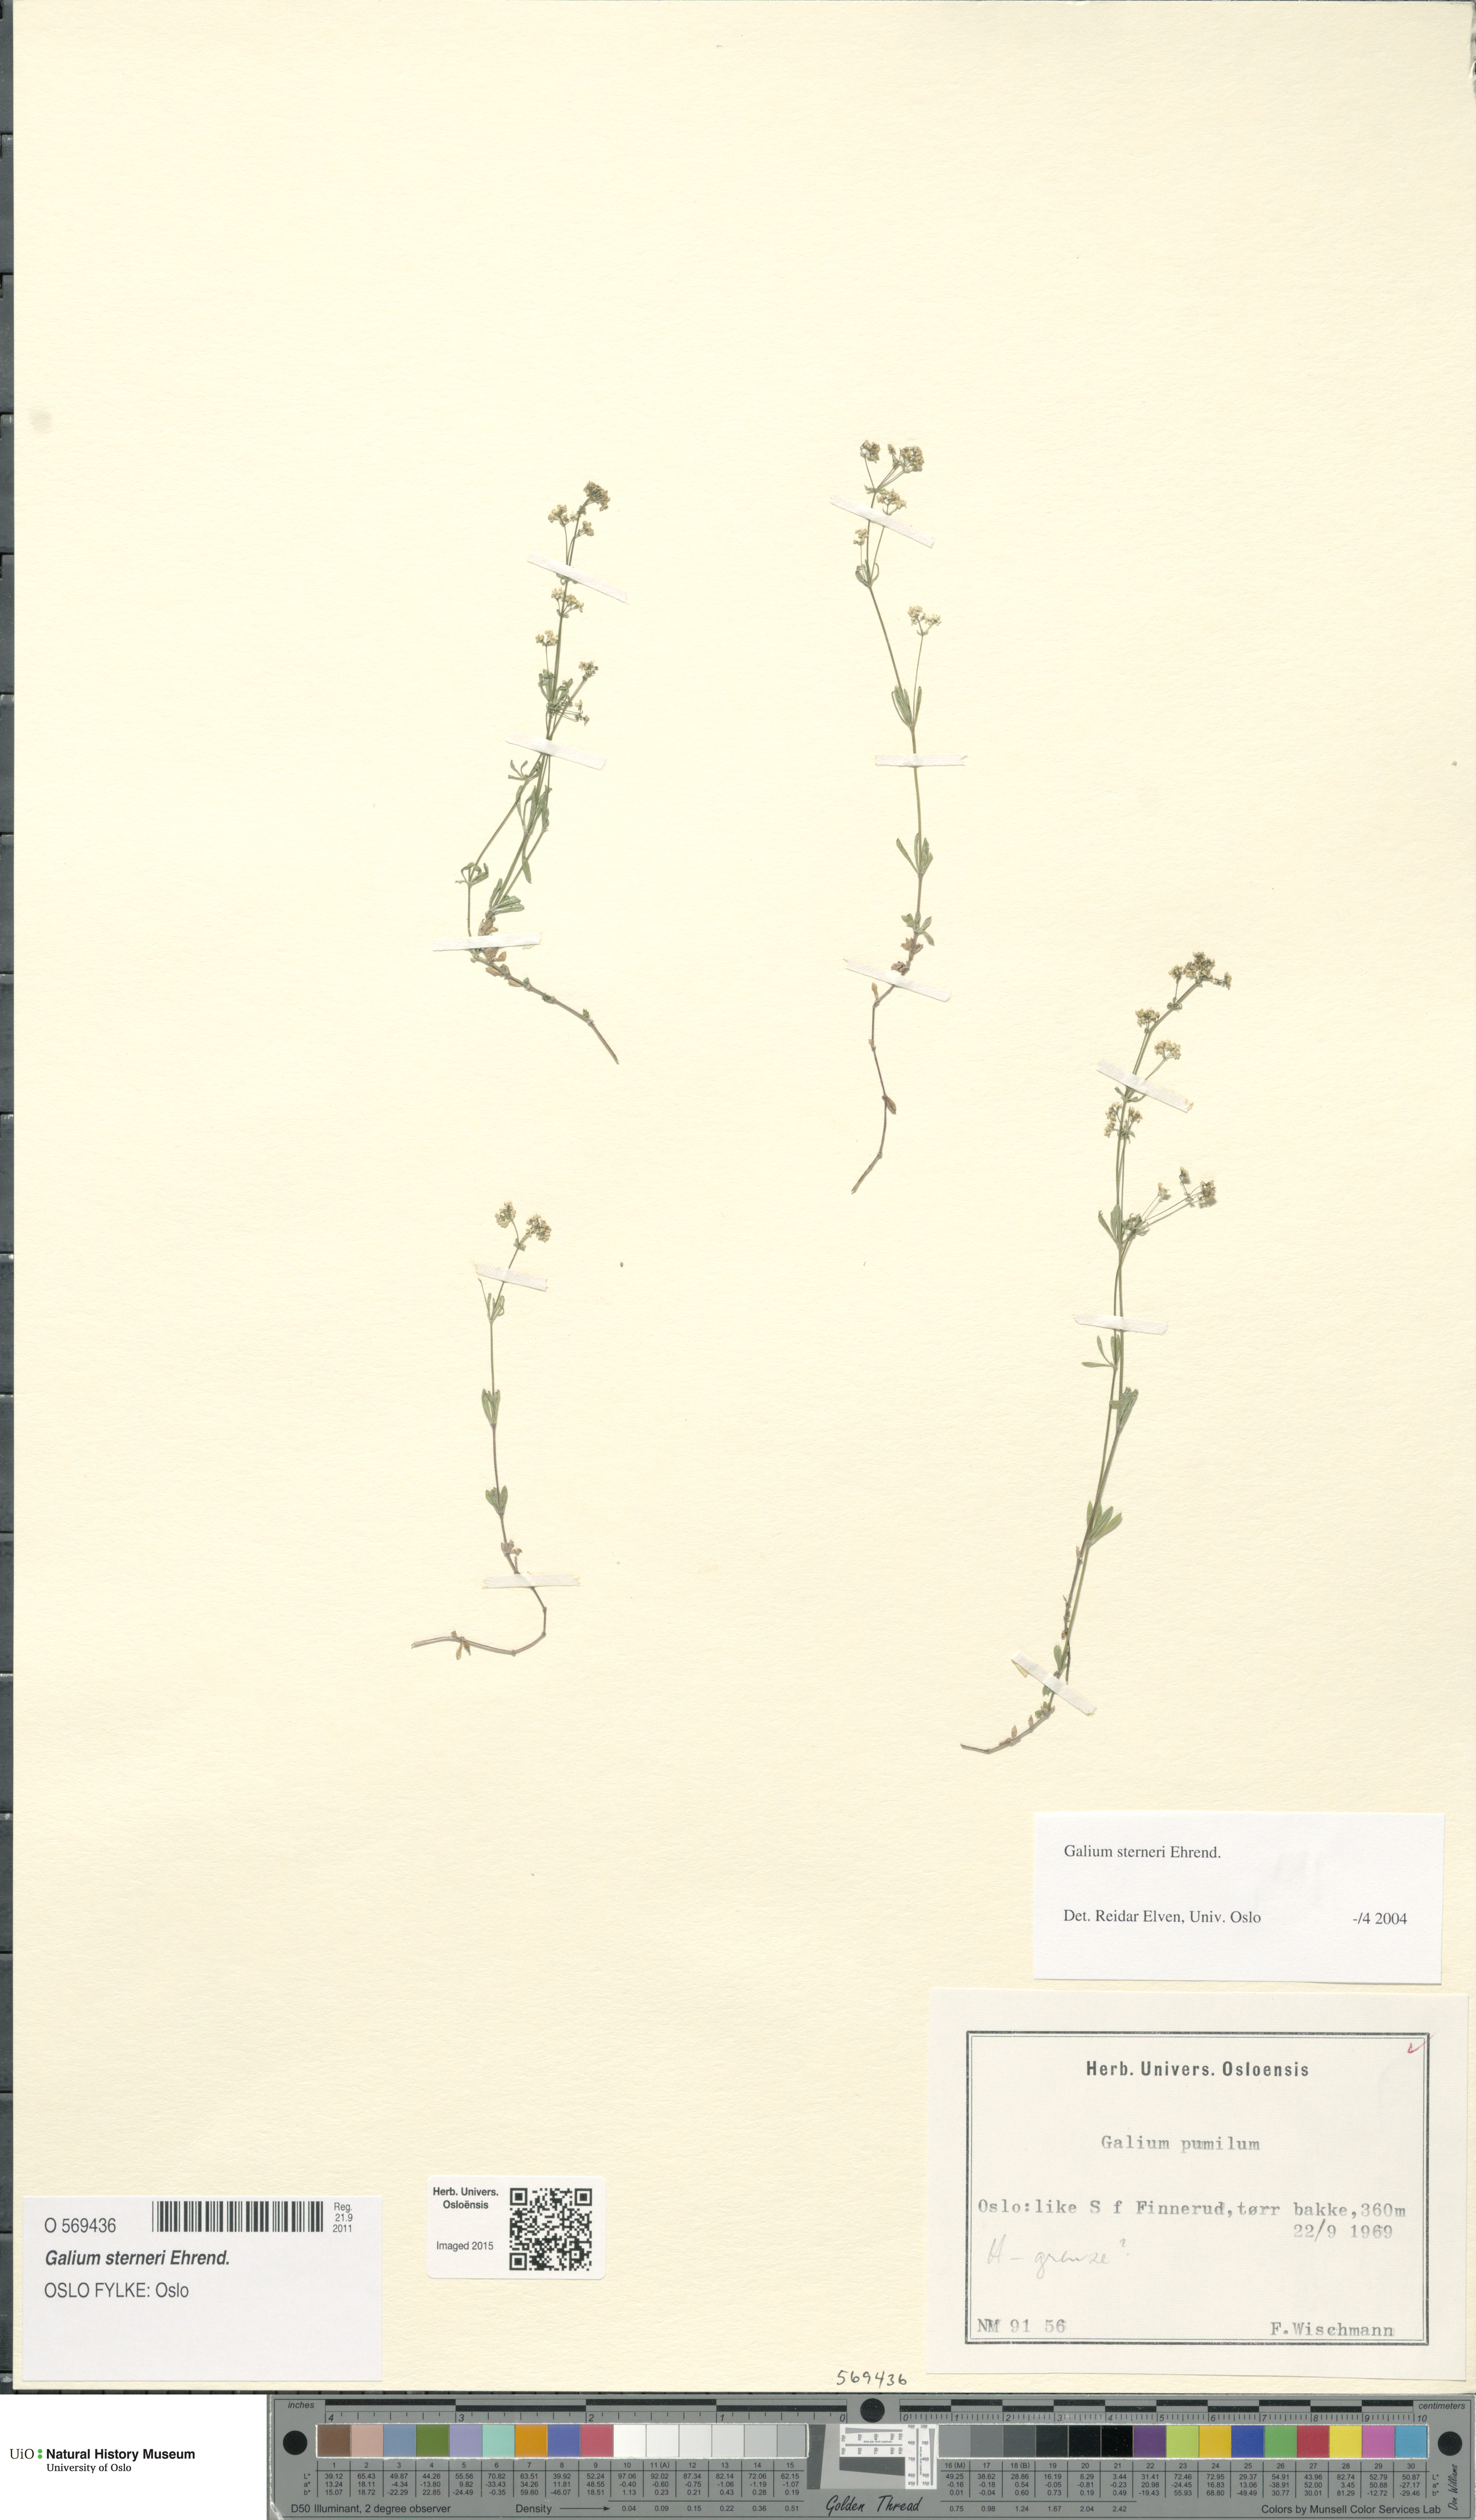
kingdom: Plantae
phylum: Tracheophyta
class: Magnoliopsida
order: Gentianales
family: Rubiaceae
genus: Galium
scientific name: Galium sterneri
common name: Limestone bedstraw
